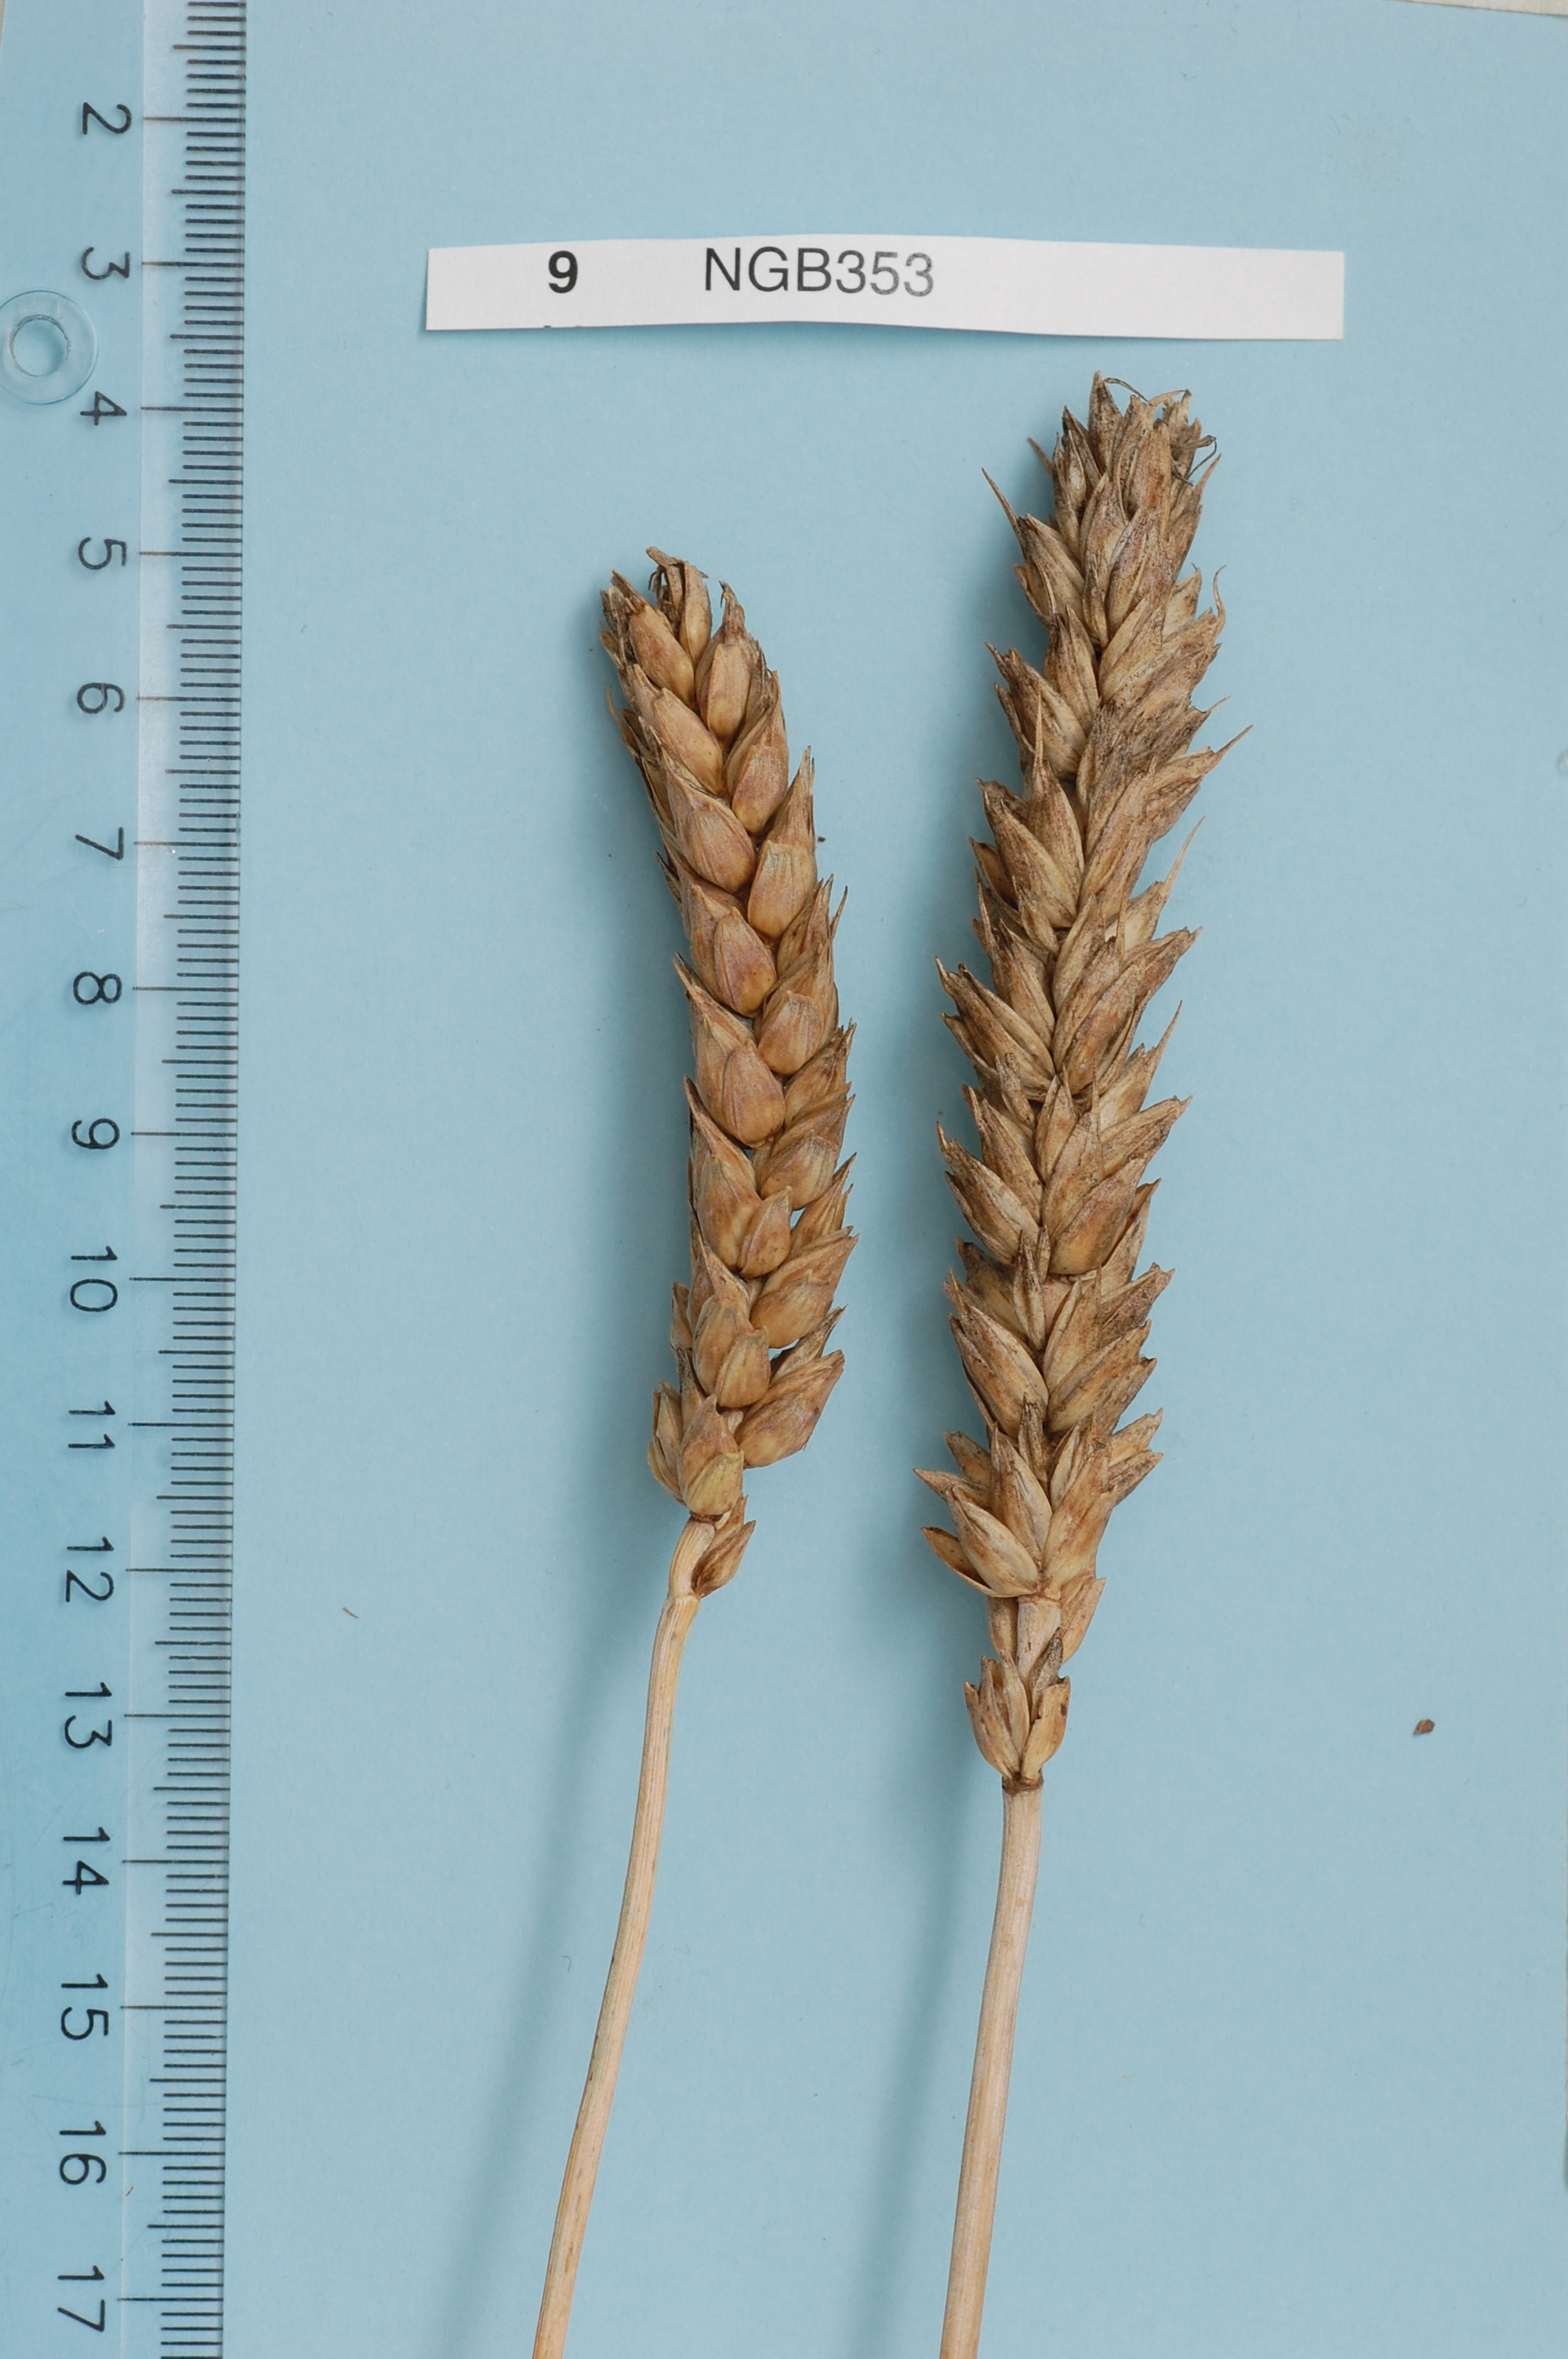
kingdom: Plantae
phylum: Tracheophyta
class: Liliopsida
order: Poales
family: Poaceae
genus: Triticum
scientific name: Triticum aestivum
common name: Common wheat
